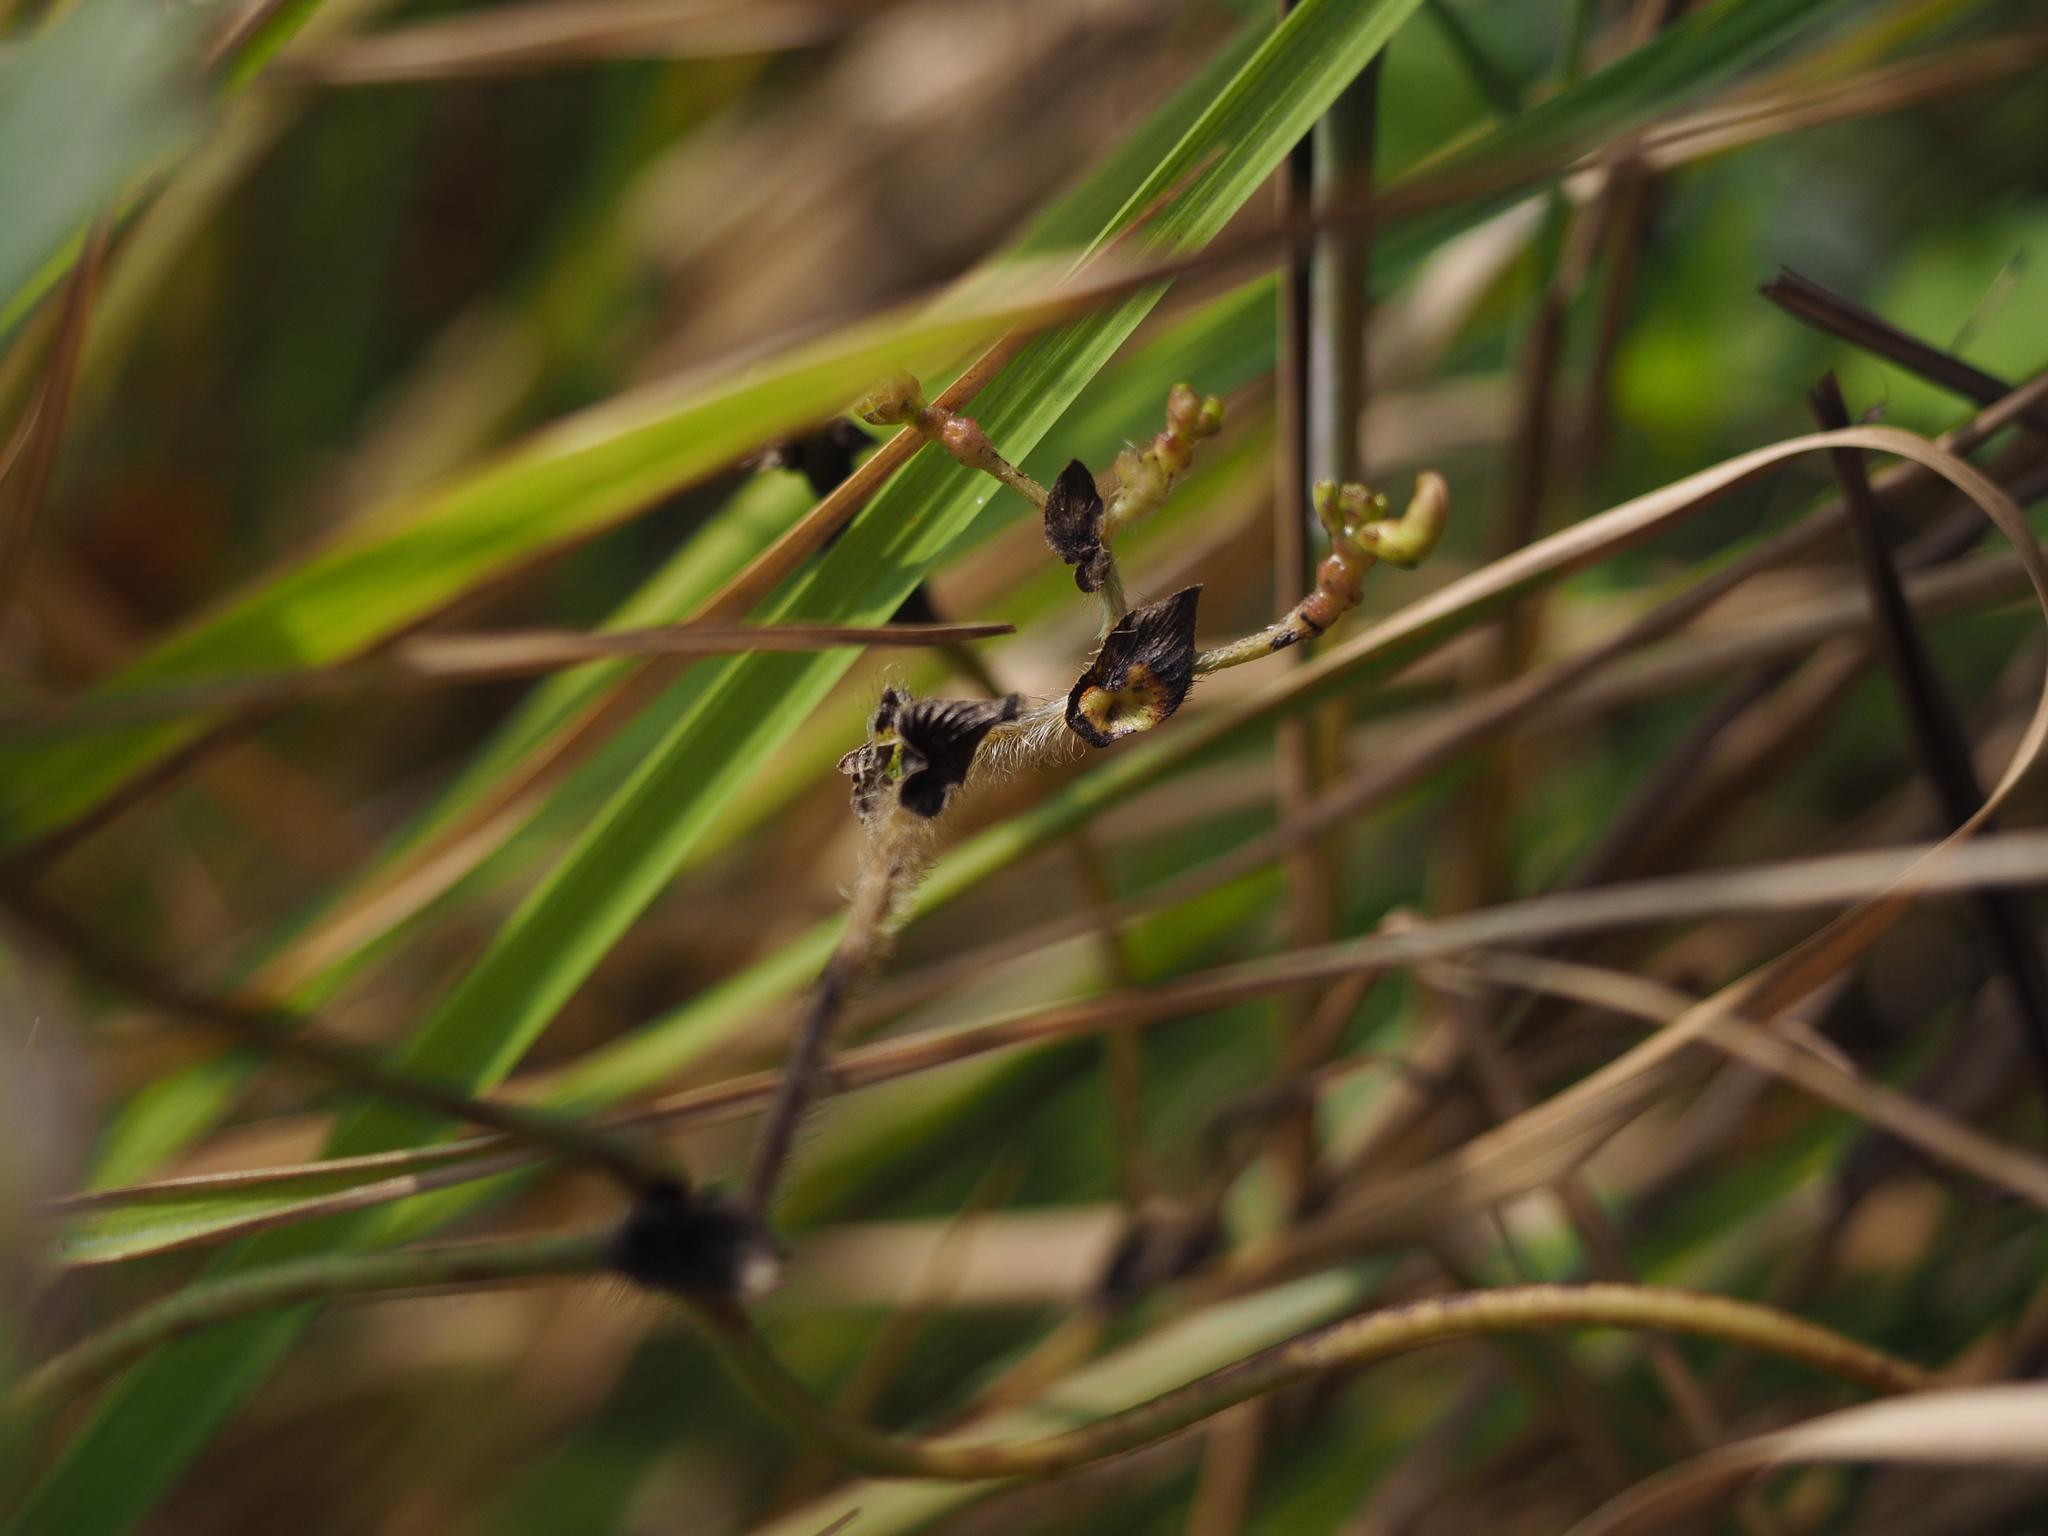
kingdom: Plantae
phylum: Tracheophyta
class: Magnoliopsida
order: Fabales
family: Fabaceae
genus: Vigna
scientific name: Vigna radiata
